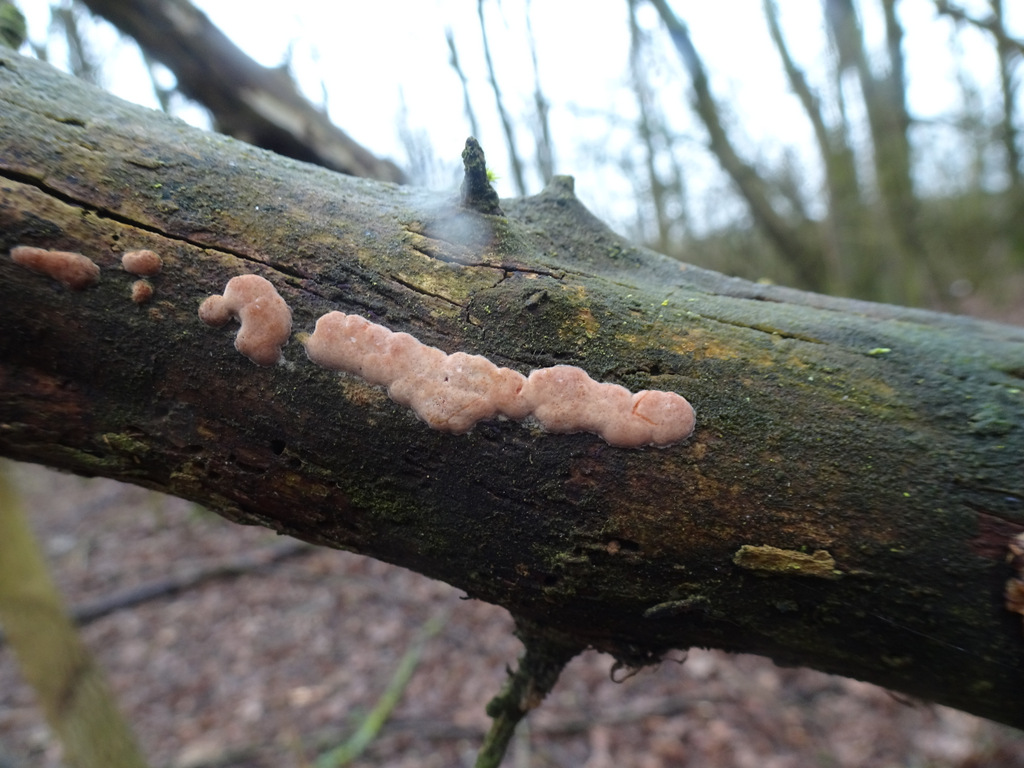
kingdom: Fungi
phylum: Basidiomycota
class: Agaricomycetes
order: Polyporales
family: Irpicaceae
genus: Ceriporia
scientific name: Ceriporia
